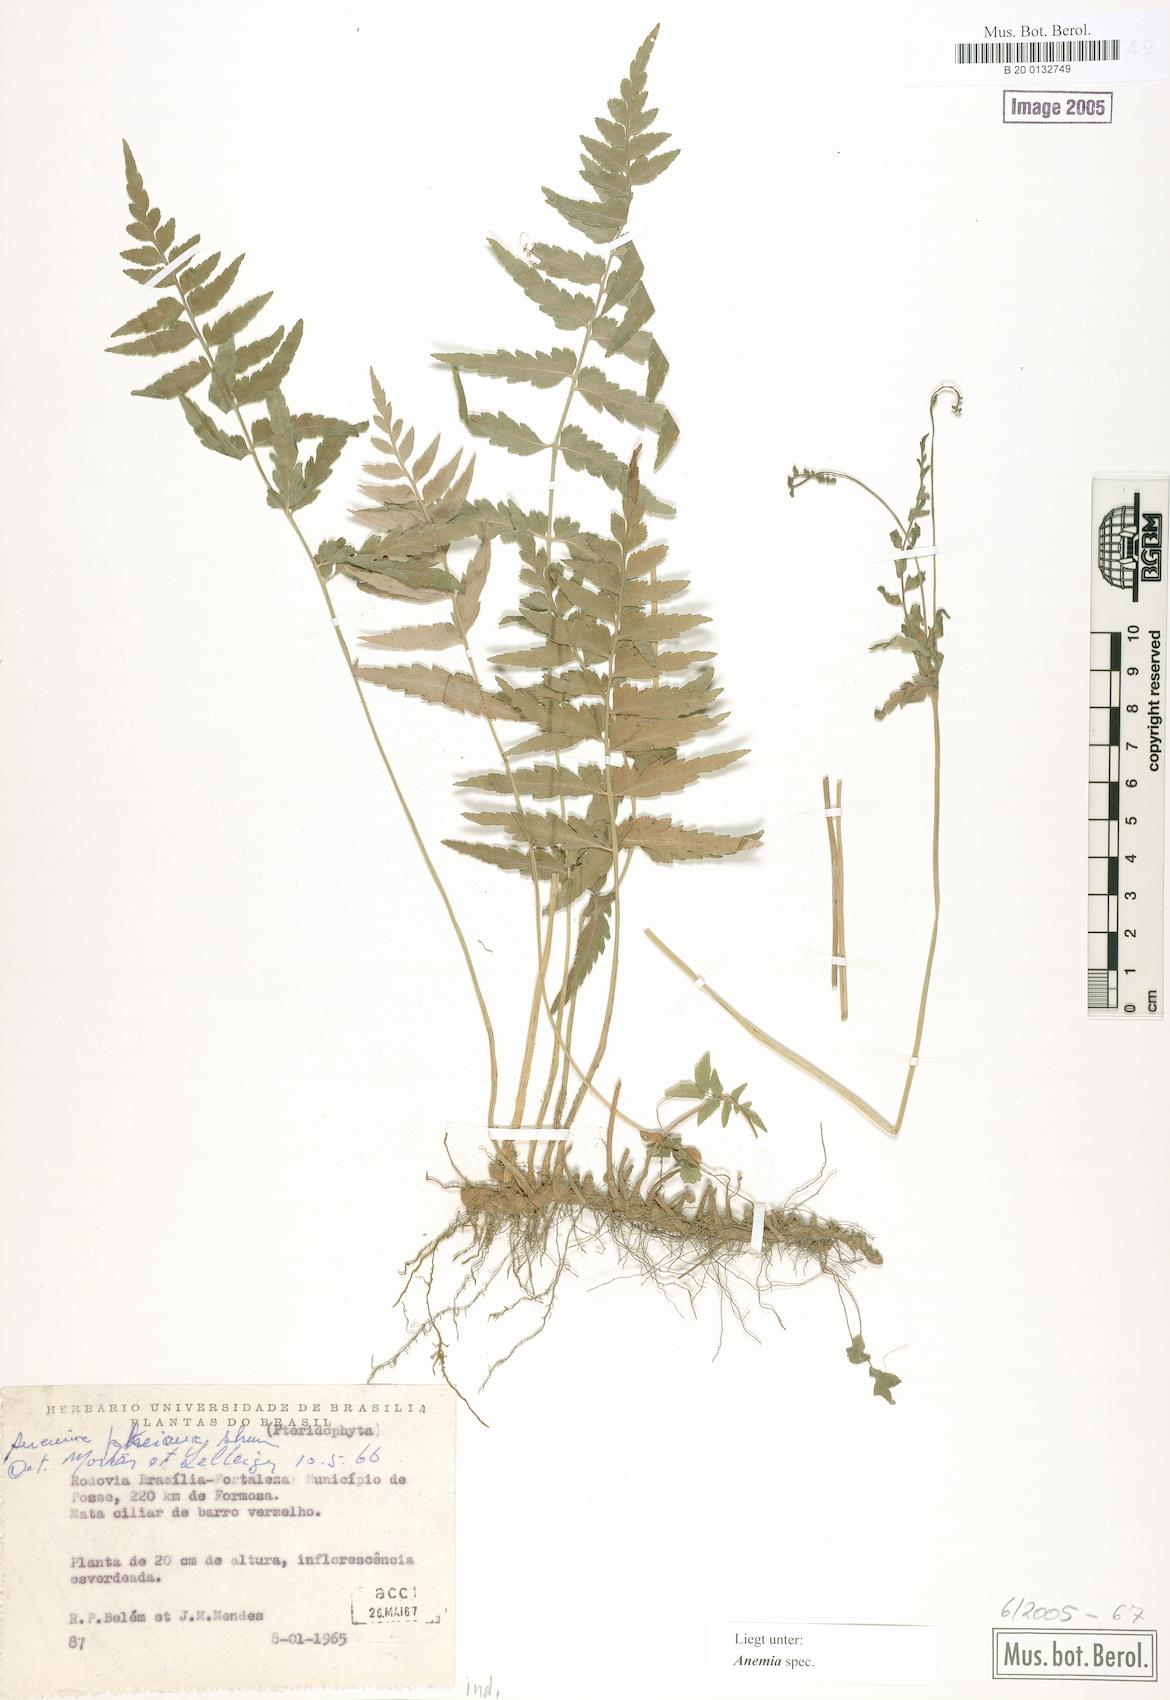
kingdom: Plantae
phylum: Tracheophyta
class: Polypodiopsida
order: Schizaeales
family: Anemiaceae
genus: Anemia
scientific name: Anemia
